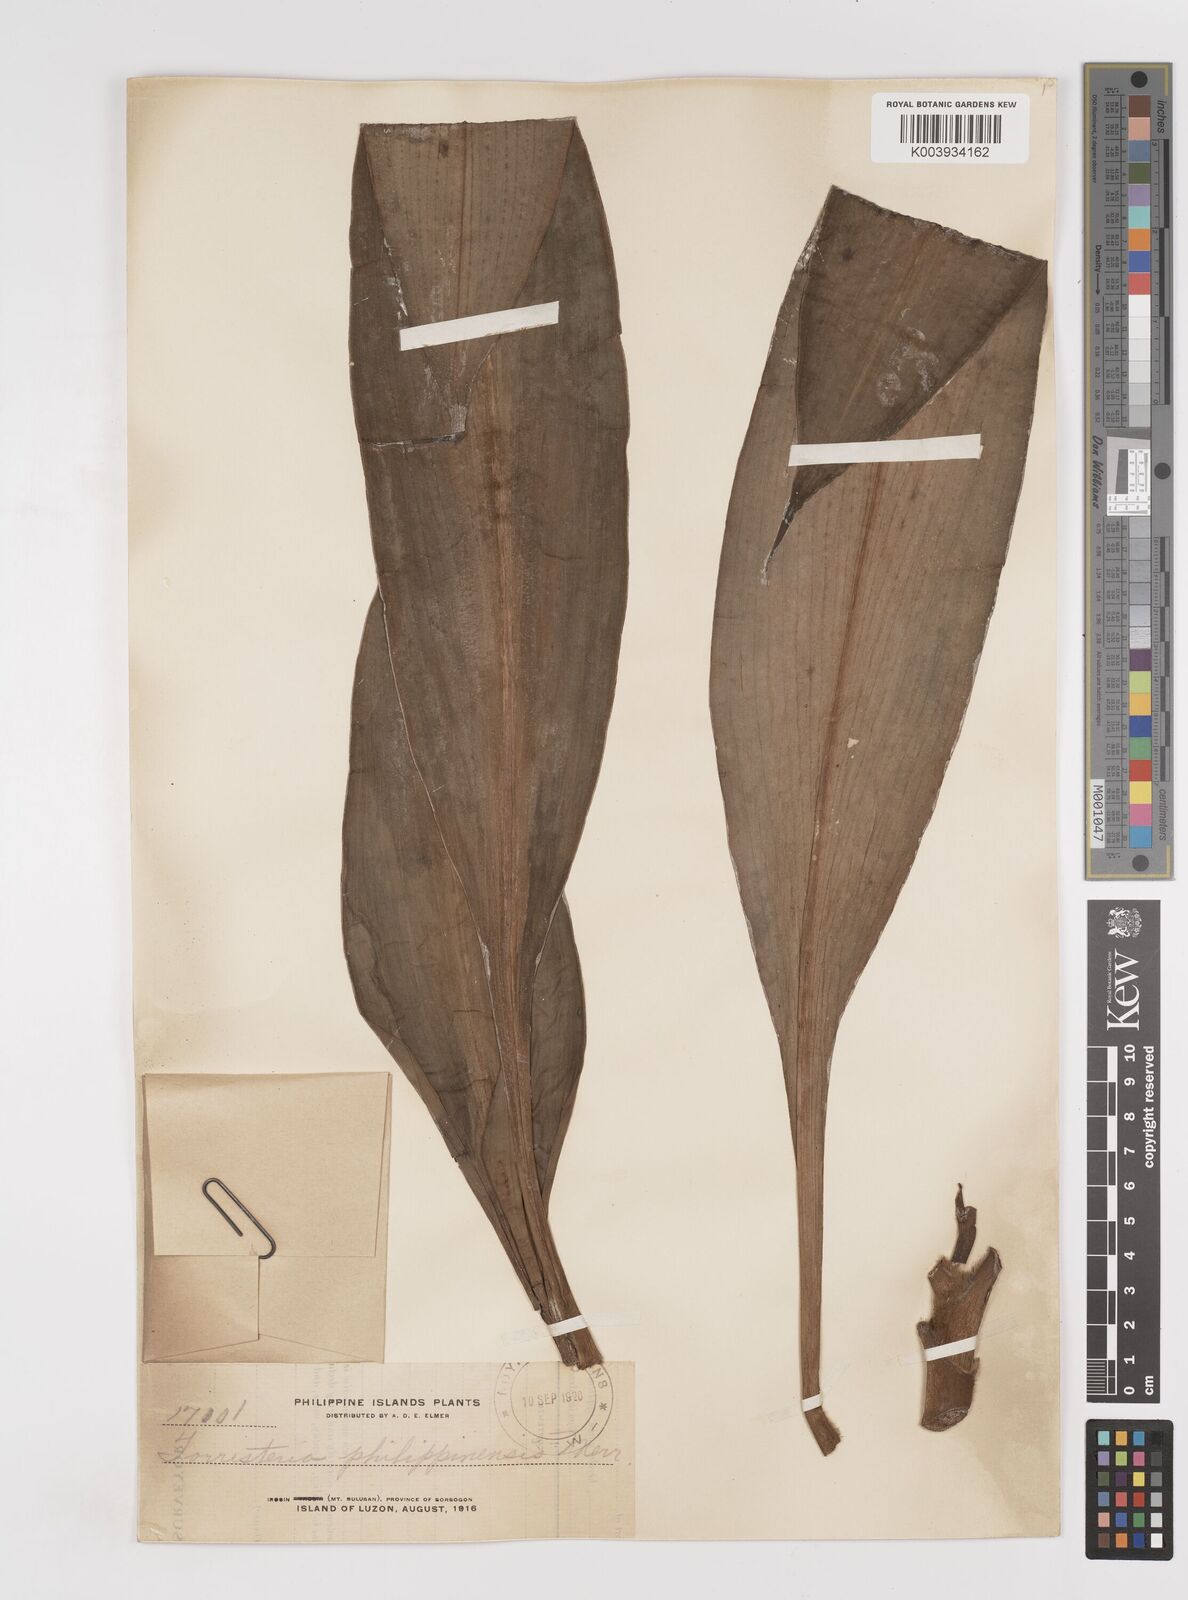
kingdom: Plantae
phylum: Tracheophyta
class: Liliopsida
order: Commelinales
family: Commelinaceae
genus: Amischotolype
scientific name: Amischotolype
